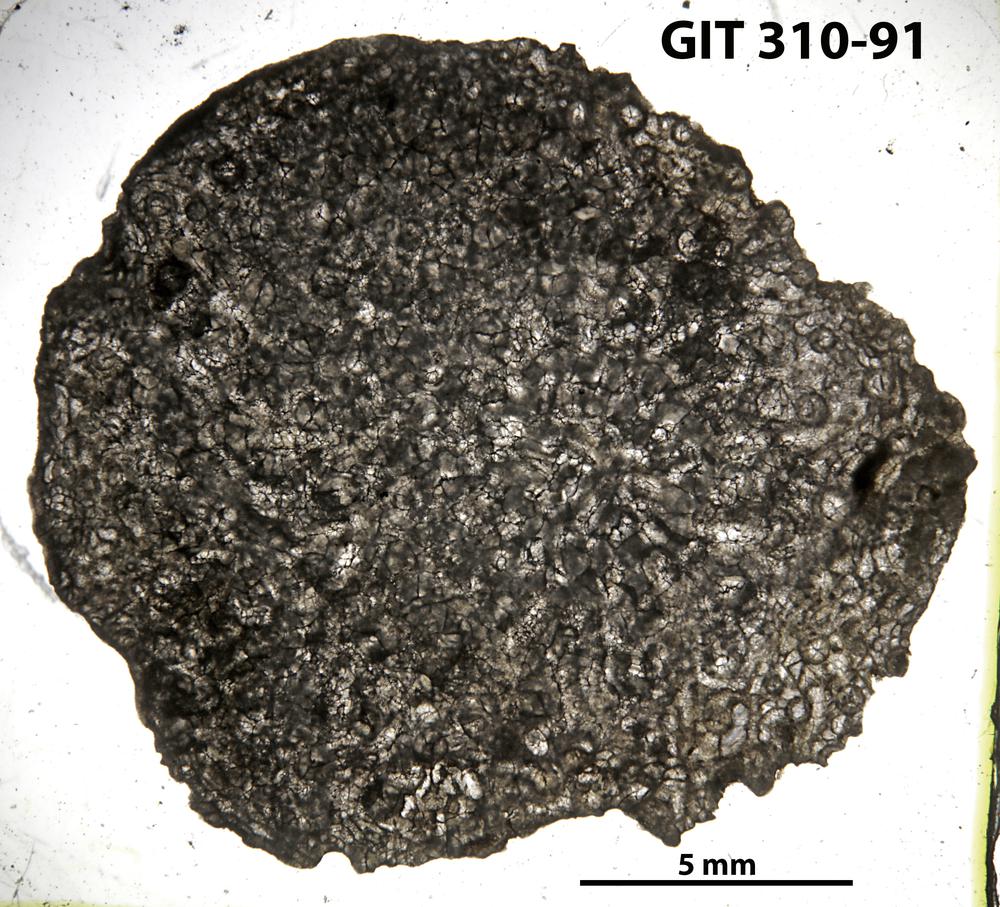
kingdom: Animalia
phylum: Porifera
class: Hexactinellida
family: Cliefdenellidae
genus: Cliefdenella
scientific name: Cliefdenella
